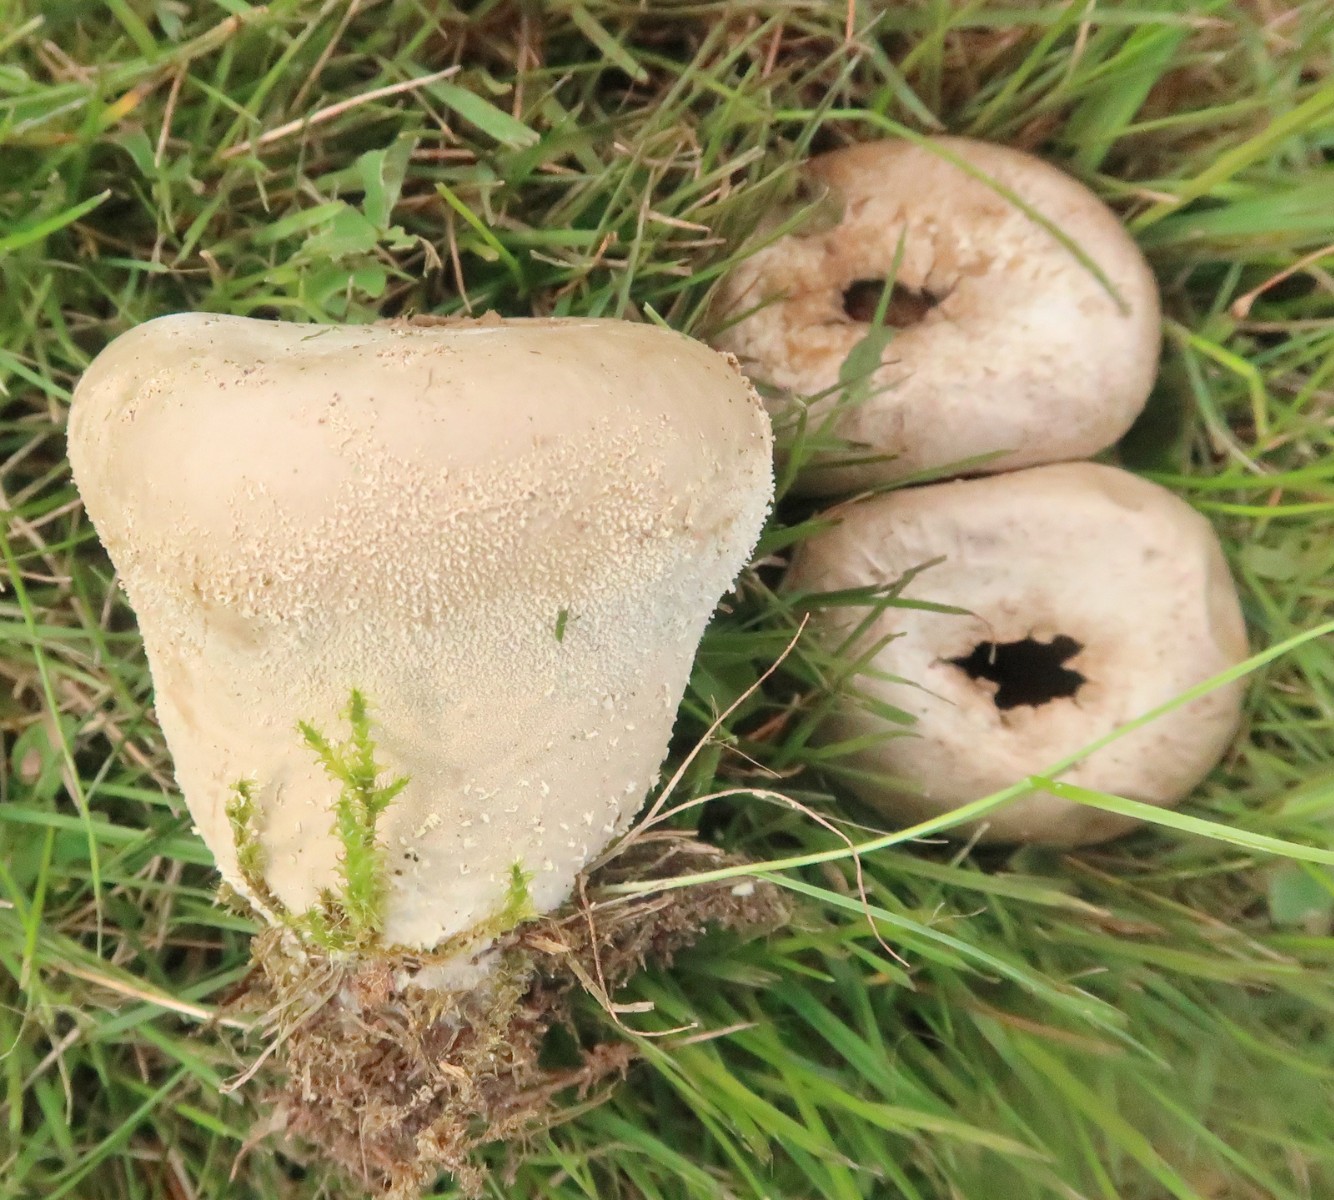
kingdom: Fungi
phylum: Basidiomycota
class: Agaricomycetes
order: Agaricales
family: Lycoperdaceae
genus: Lycoperdon
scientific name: Lycoperdon pratense
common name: flad støvbold
